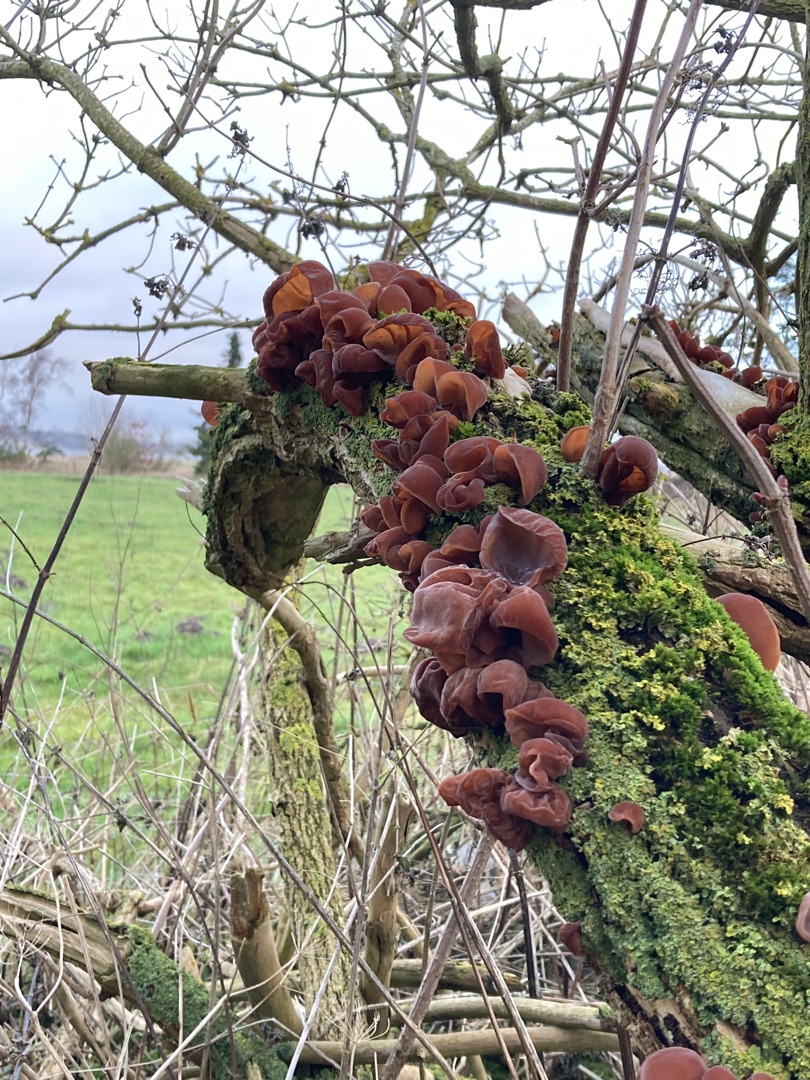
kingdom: Fungi
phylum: Basidiomycota
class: Agaricomycetes
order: Auriculariales
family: Auriculariaceae
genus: Auricularia
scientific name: Auricularia auricula-judae
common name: Almindelig judasøre
